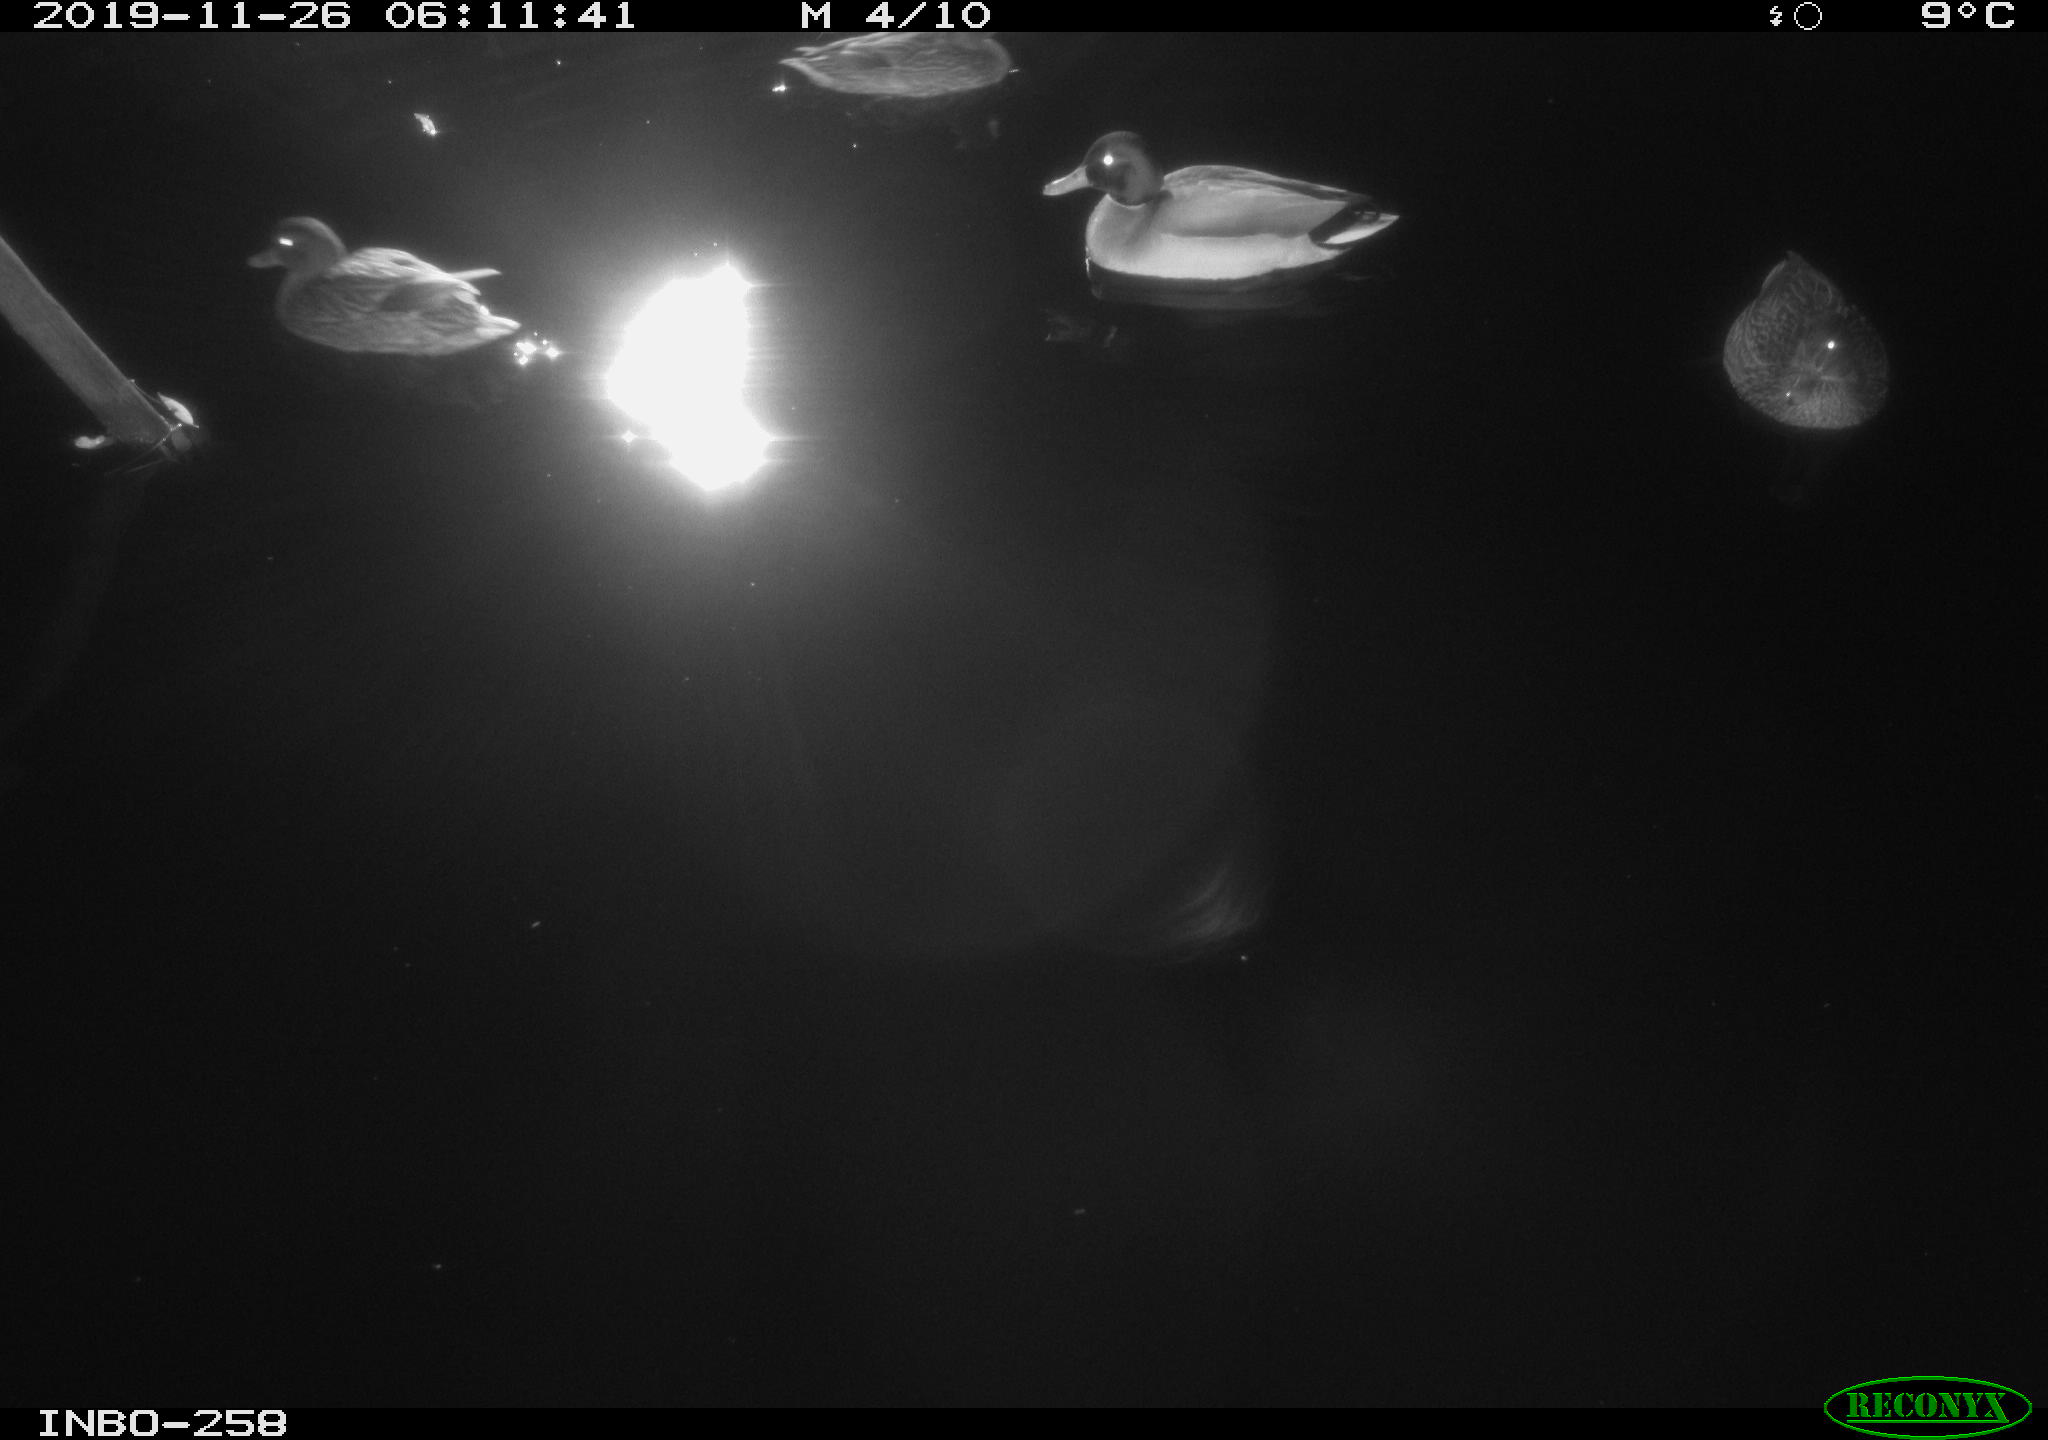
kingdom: Animalia
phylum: Chordata
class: Aves
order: Anseriformes
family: Anatidae
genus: Anas
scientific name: Anas platyrhynchos
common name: Mallard
